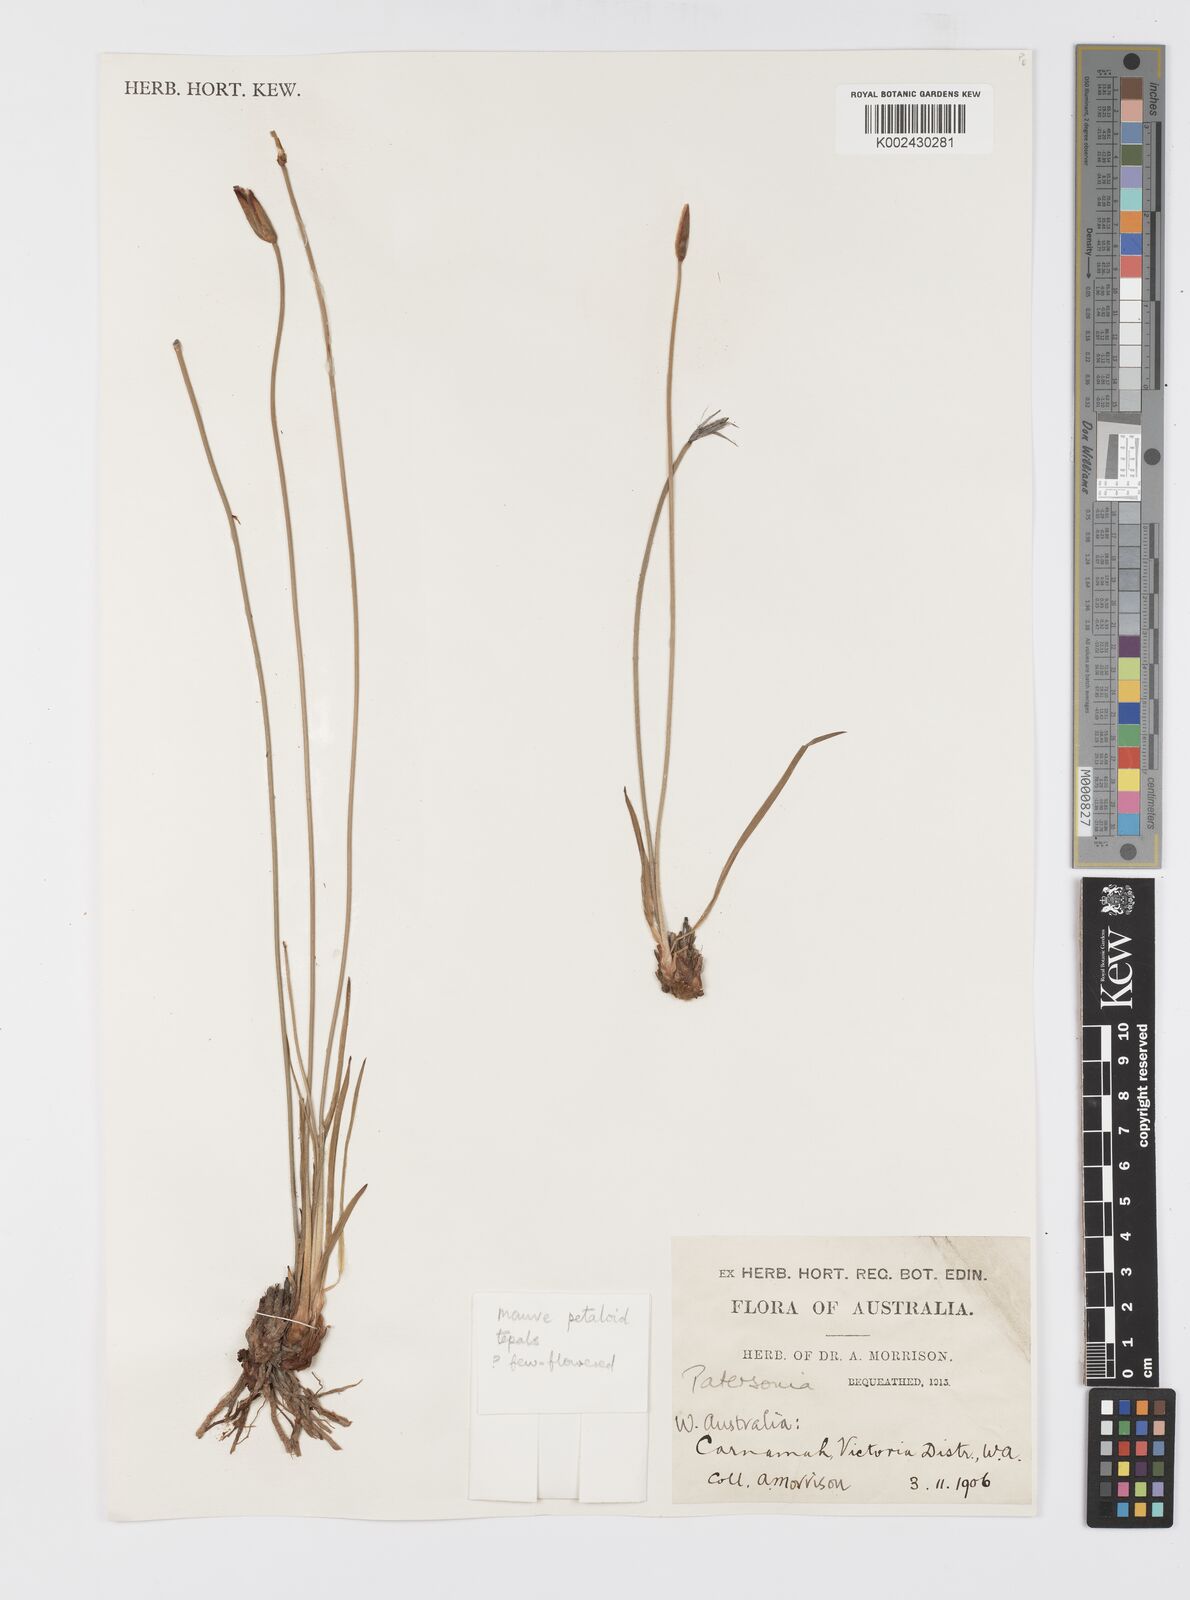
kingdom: Plantae
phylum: Tracheophyta
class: Liliopsida
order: Asparagales
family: Iridaceae
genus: Patersonia
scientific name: Patersonia
